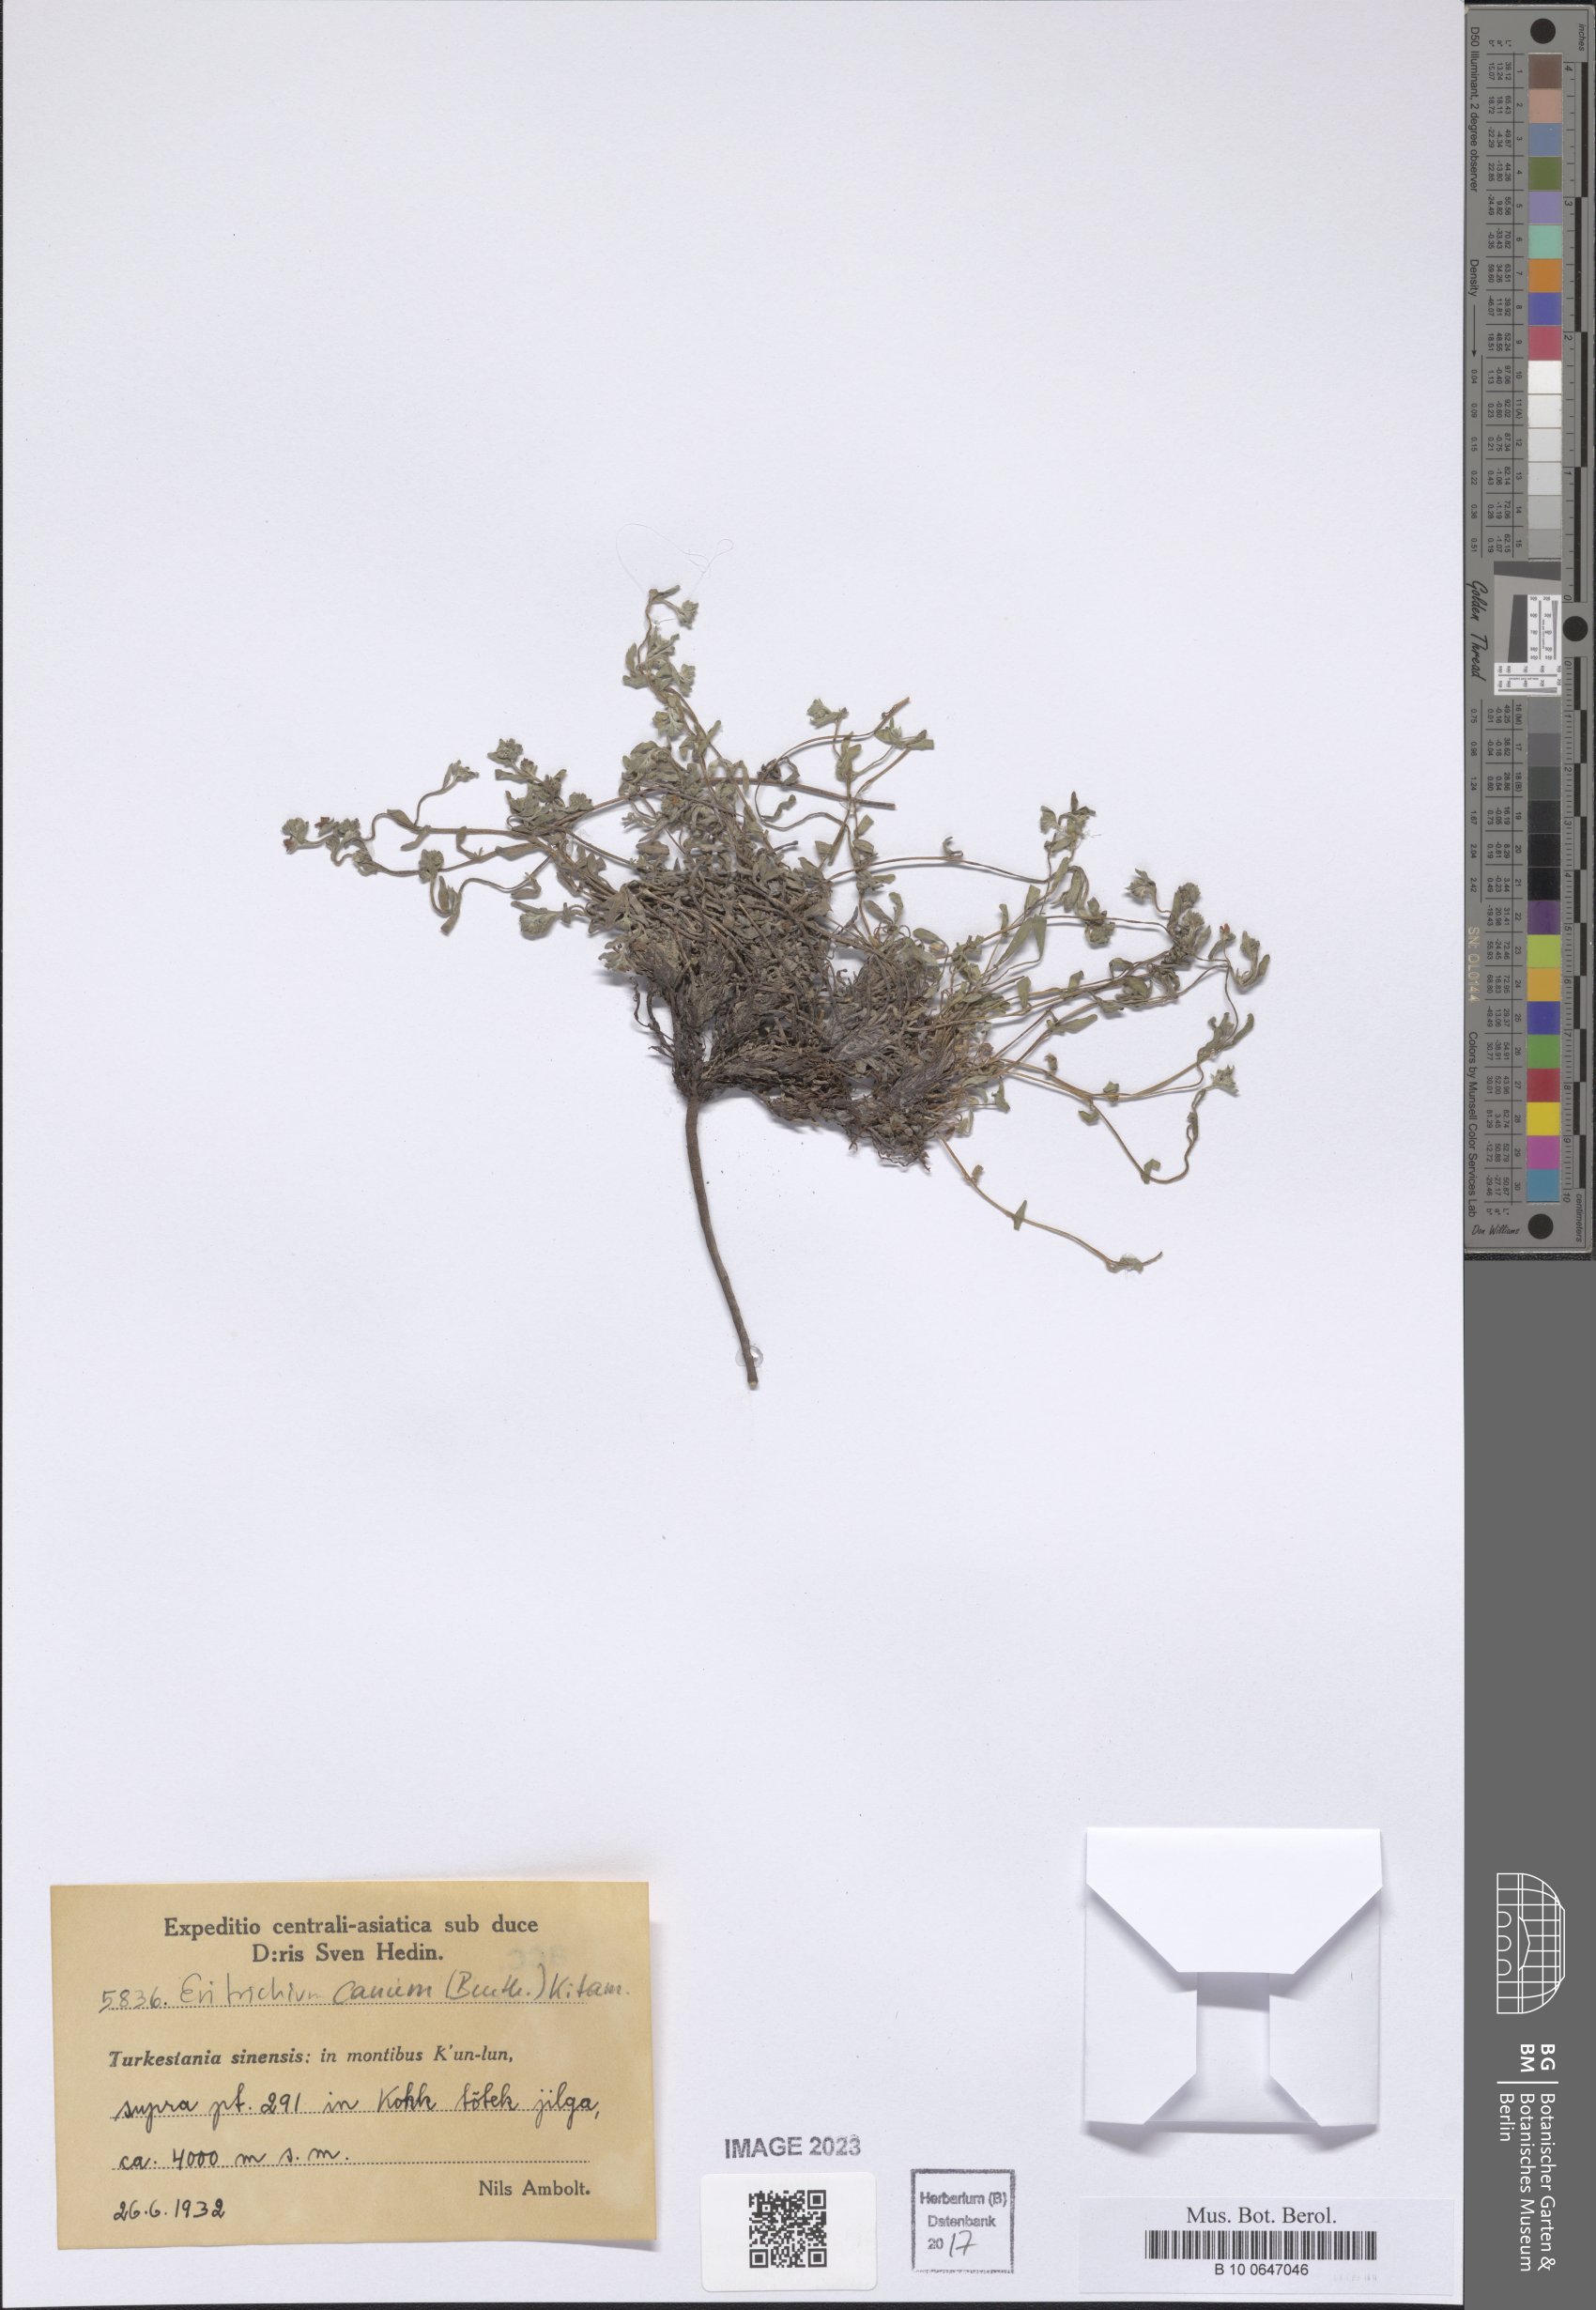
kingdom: Plantae
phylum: Tracheophyta
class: Magnoliopsida
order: Boraginales
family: Boraginaceae
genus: Eritrichium
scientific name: Eritrichium canum
